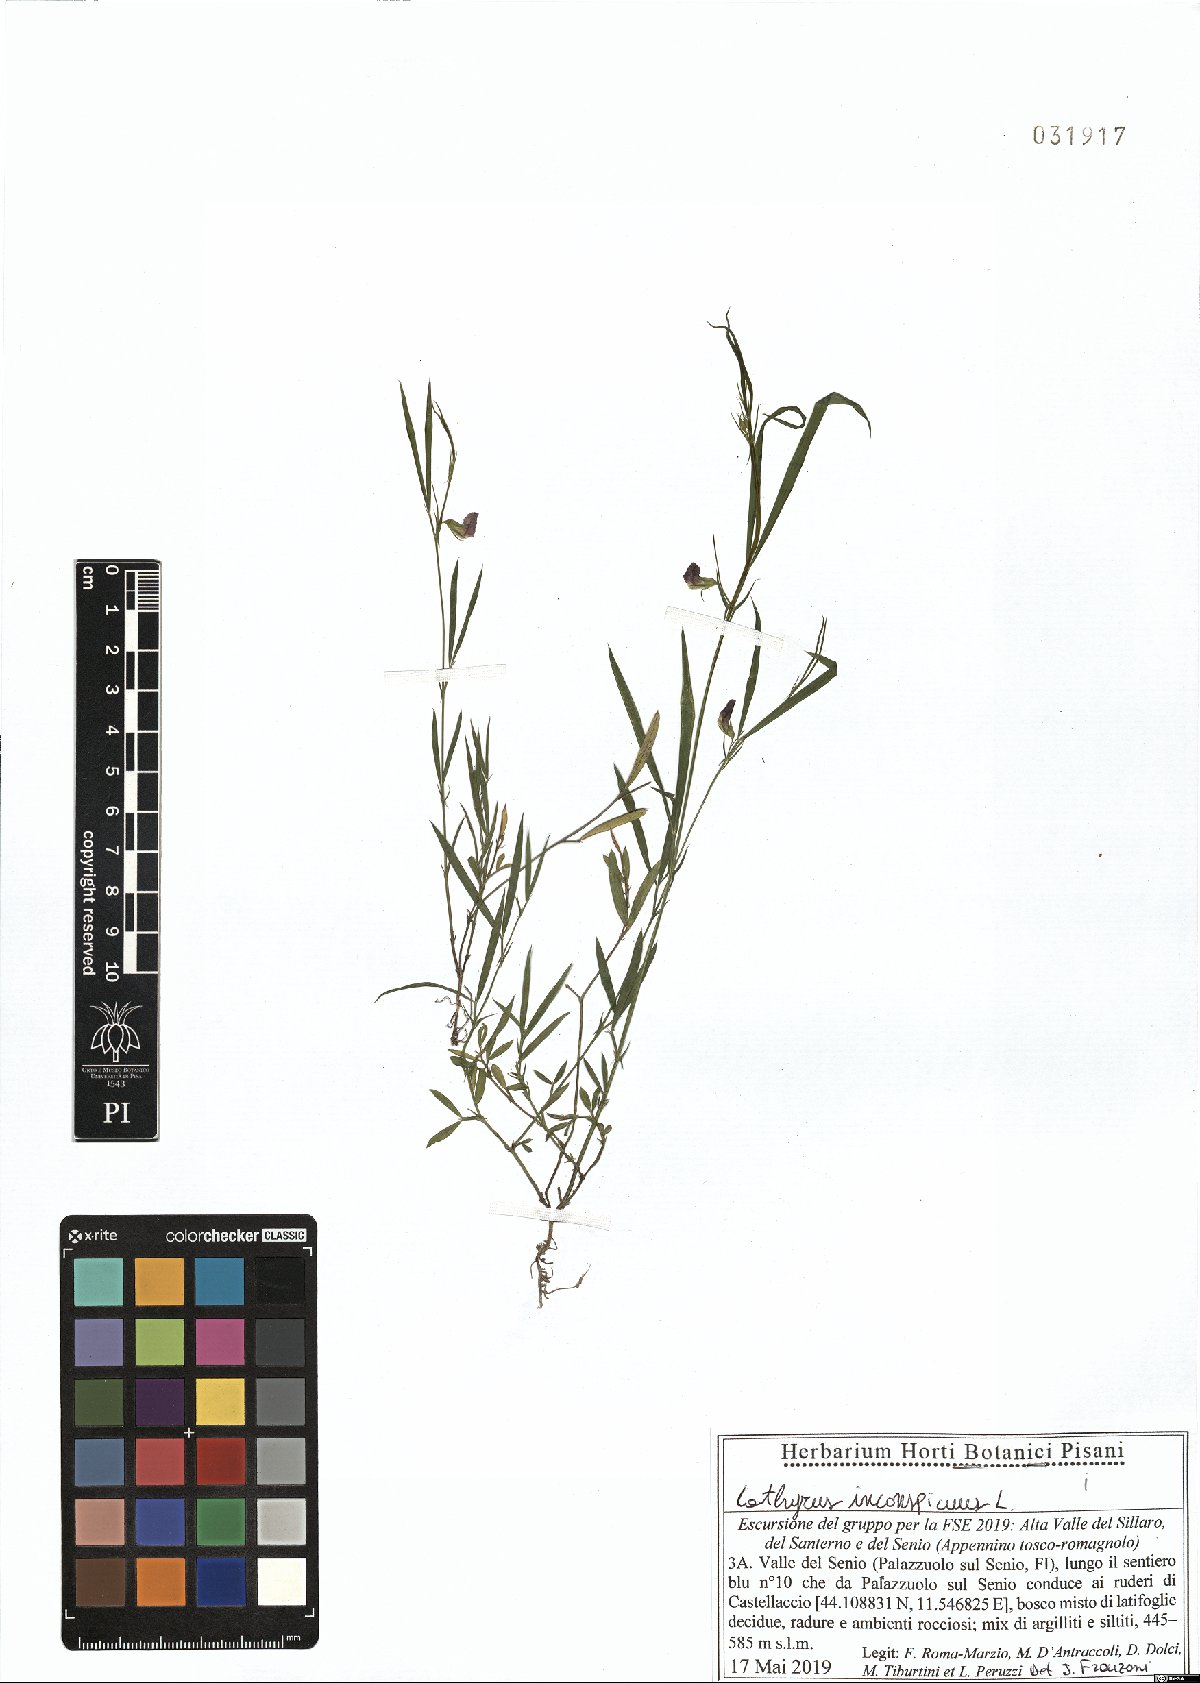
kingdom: Plantae
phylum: Tracheophyta
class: Magnoliopsida
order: Fabales
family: Fabaceae
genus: Lathyrus
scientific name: Lathyrus inconspicuus
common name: Inconspicuous pea
